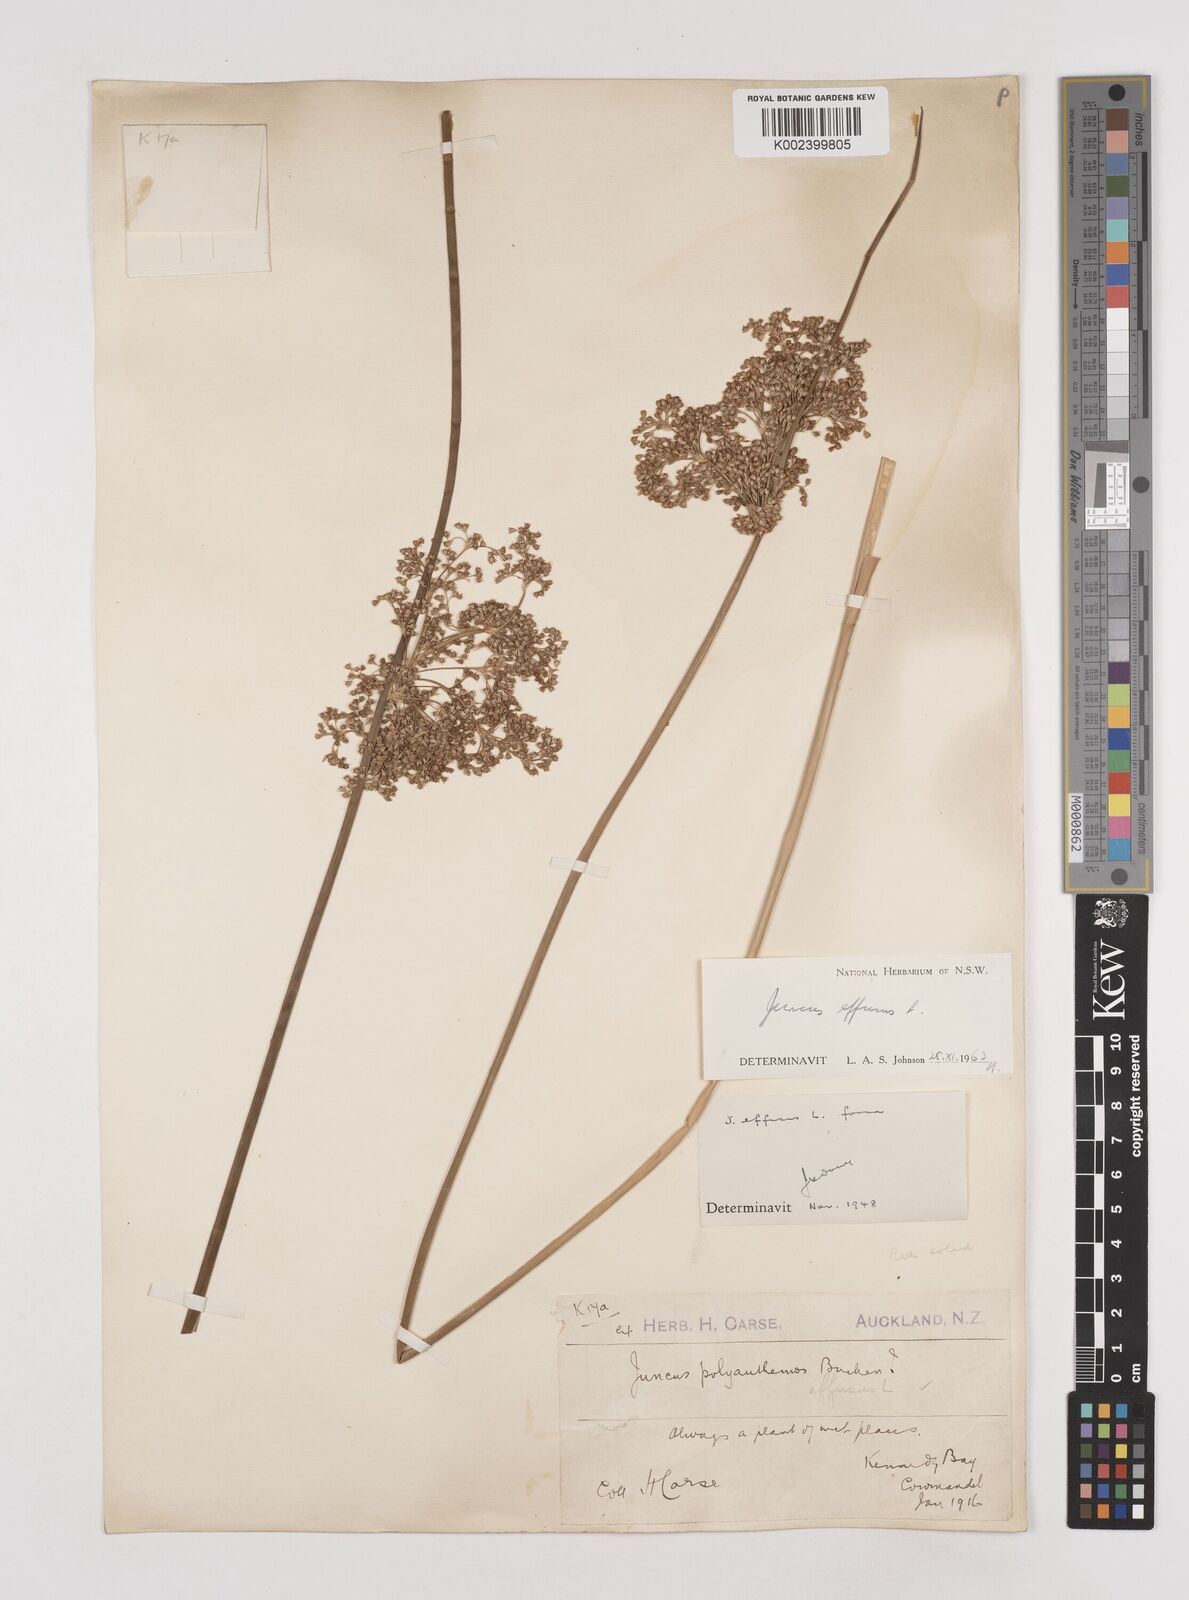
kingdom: Plantae
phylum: Tracheophyta
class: Liliopsida
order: Poales
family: Juncaceae
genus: Juncus
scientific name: Juncus effusus
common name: Soft rush
